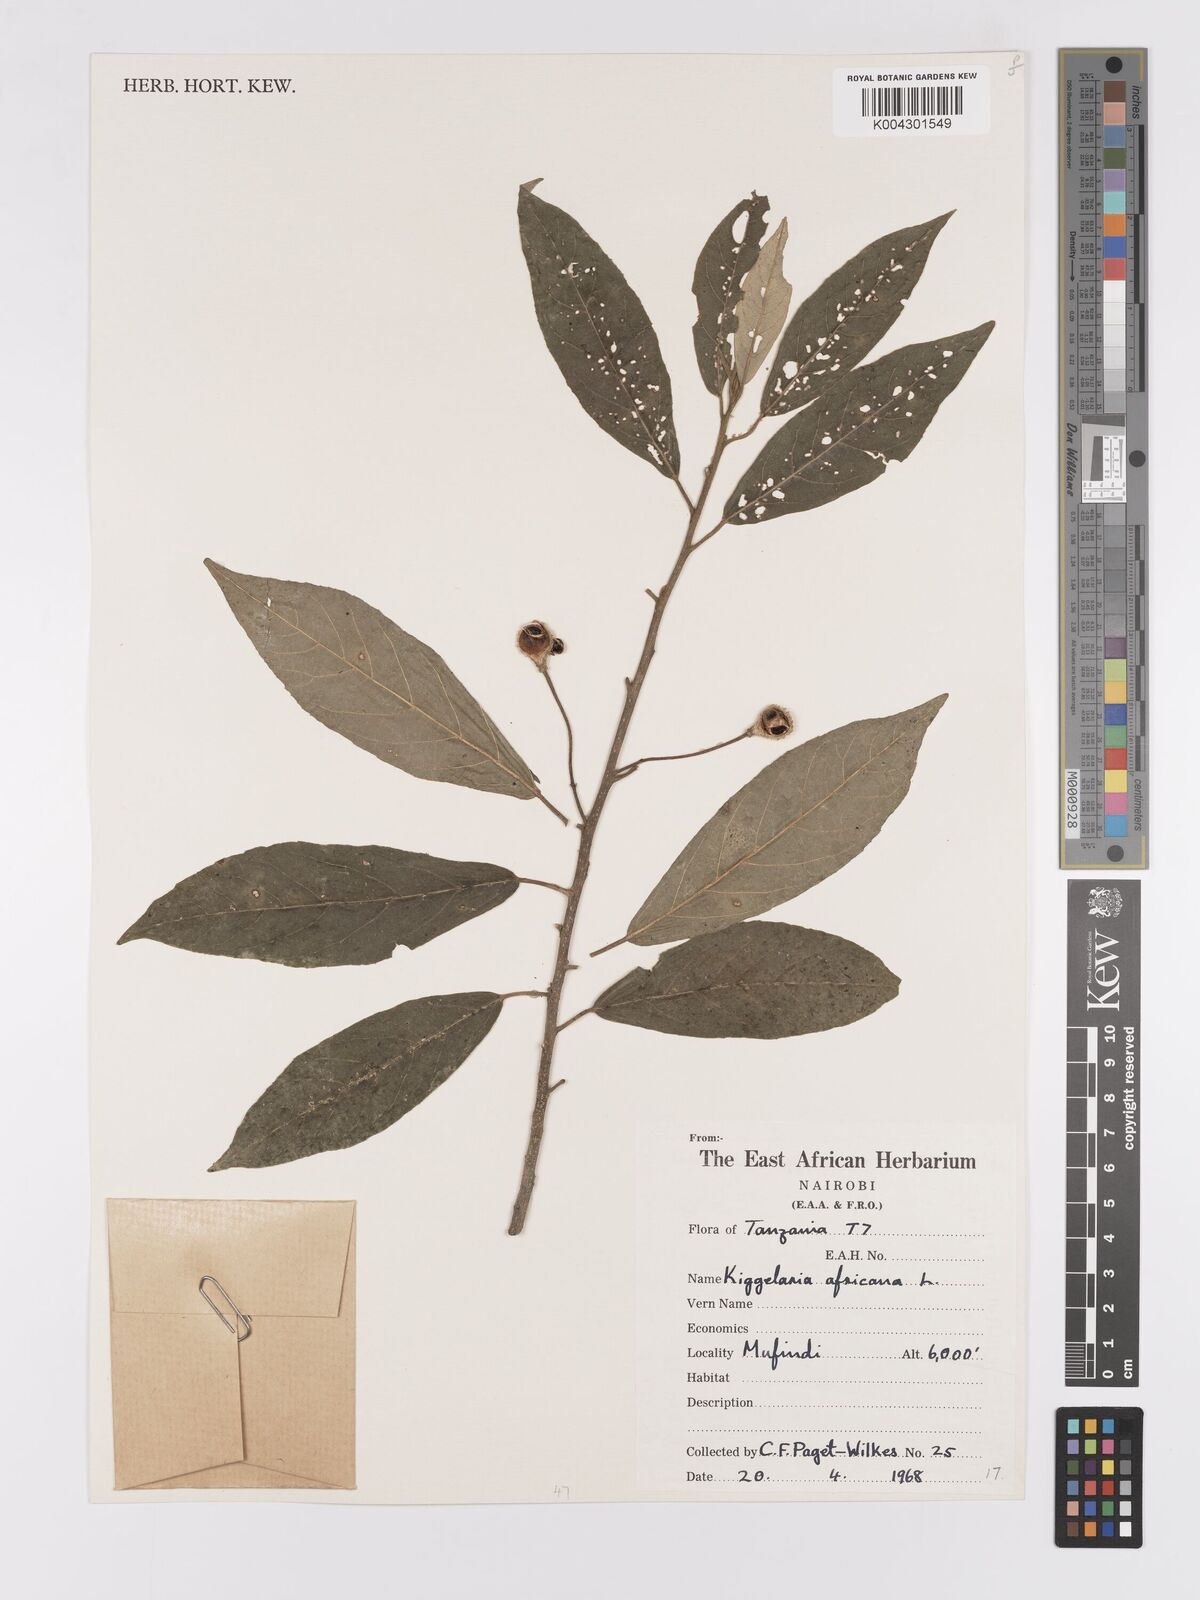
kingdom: Plantae
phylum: Tracheophyta
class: Magnoliopsida
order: Malpighiales
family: Achariaceae
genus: Kiggelaria
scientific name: Kiggelaria africana
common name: Wild peach
